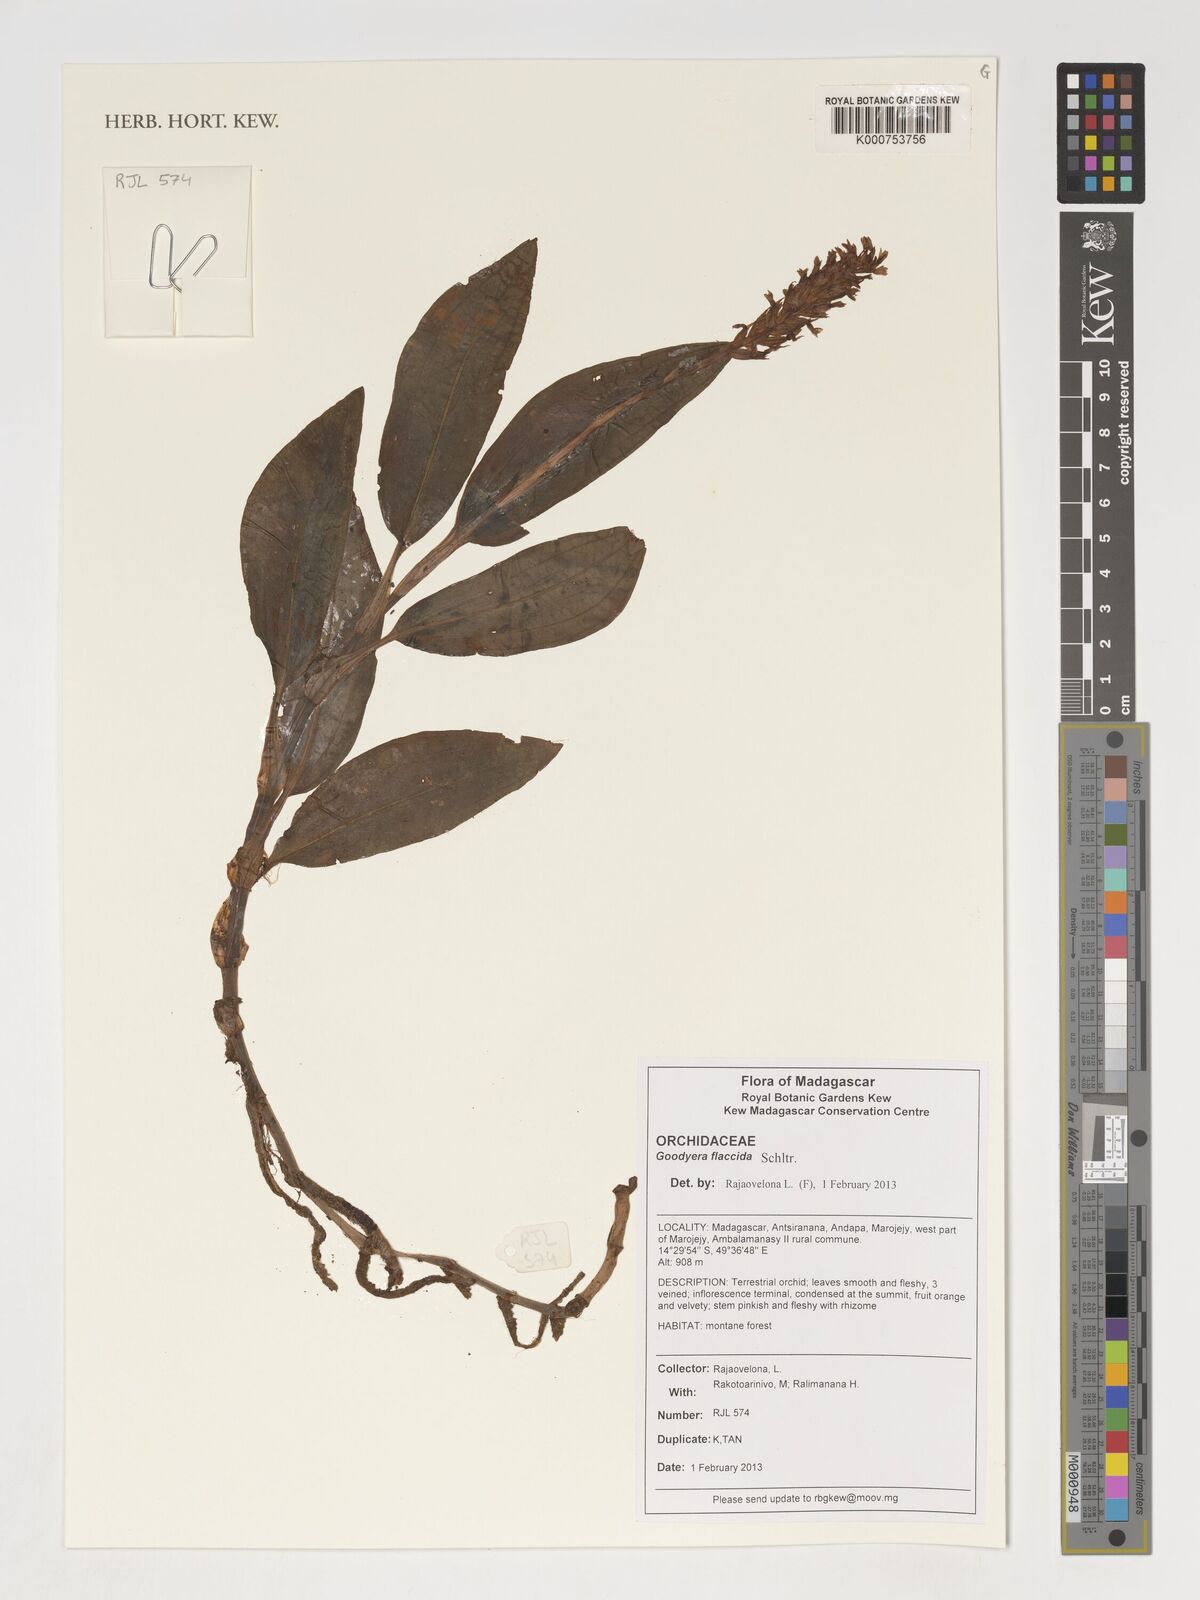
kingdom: Plantae
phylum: Tracheophyta
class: Liliopsida
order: Asparagales
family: Orchidaceae
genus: Platylepis
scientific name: Platylepis flaccida
